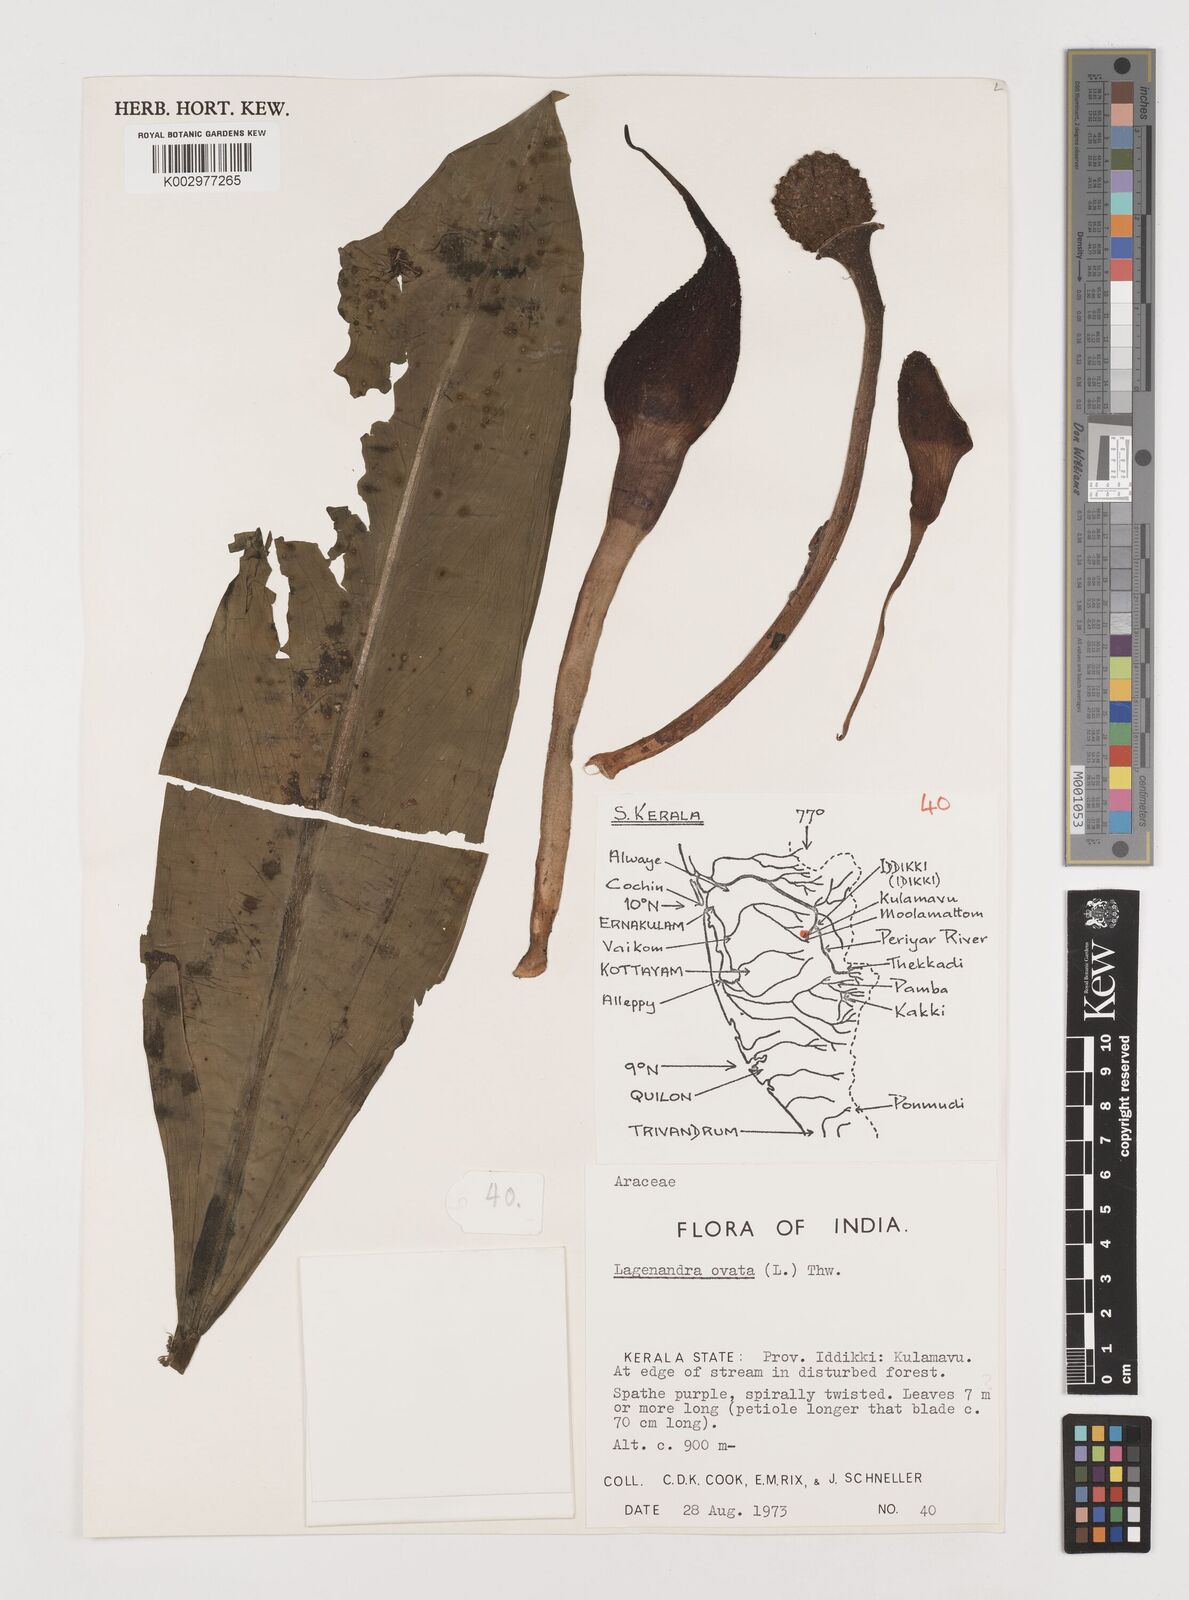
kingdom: Plantae
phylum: Tracheophyta
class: Liliopsida
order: Alismatales
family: Araceae
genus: Lagenandra
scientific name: Lagenandra ovata
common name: Malayan sword
